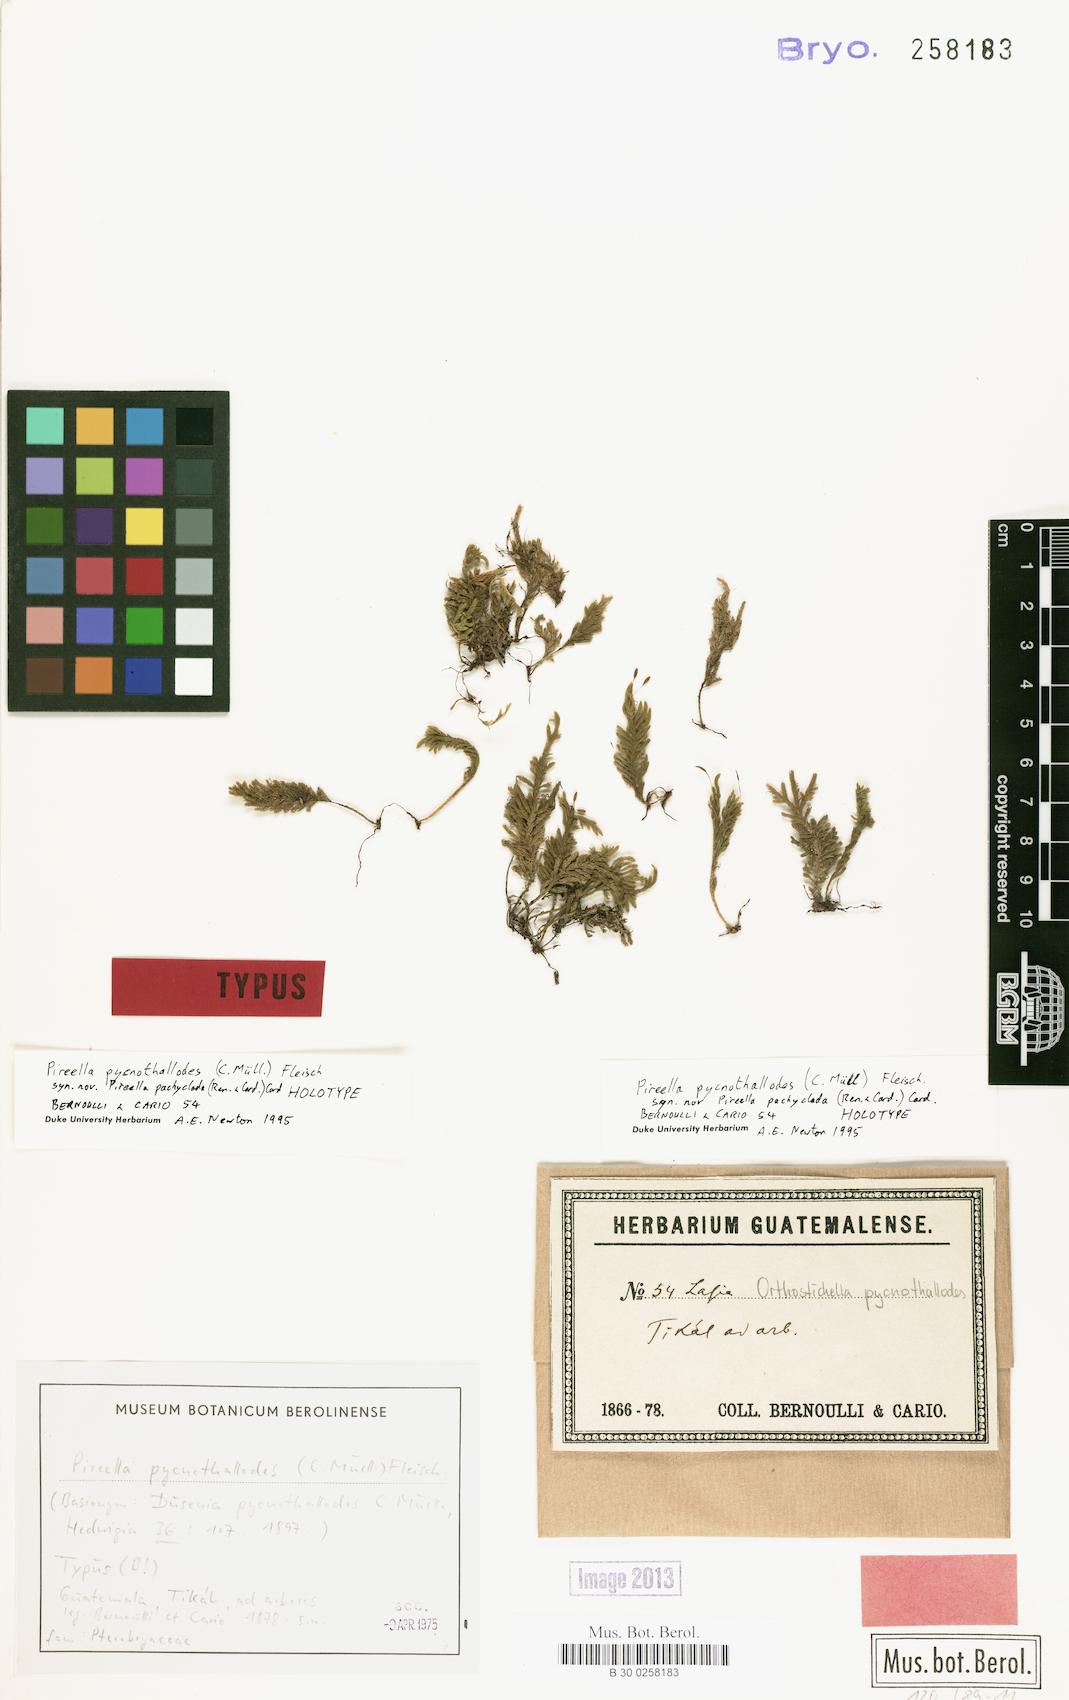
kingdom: Plantae
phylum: Bryophyta
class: Bryopsida
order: Hypnales
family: Pterobryaceae
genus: Pireella
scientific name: Pireella pycnothallodes
